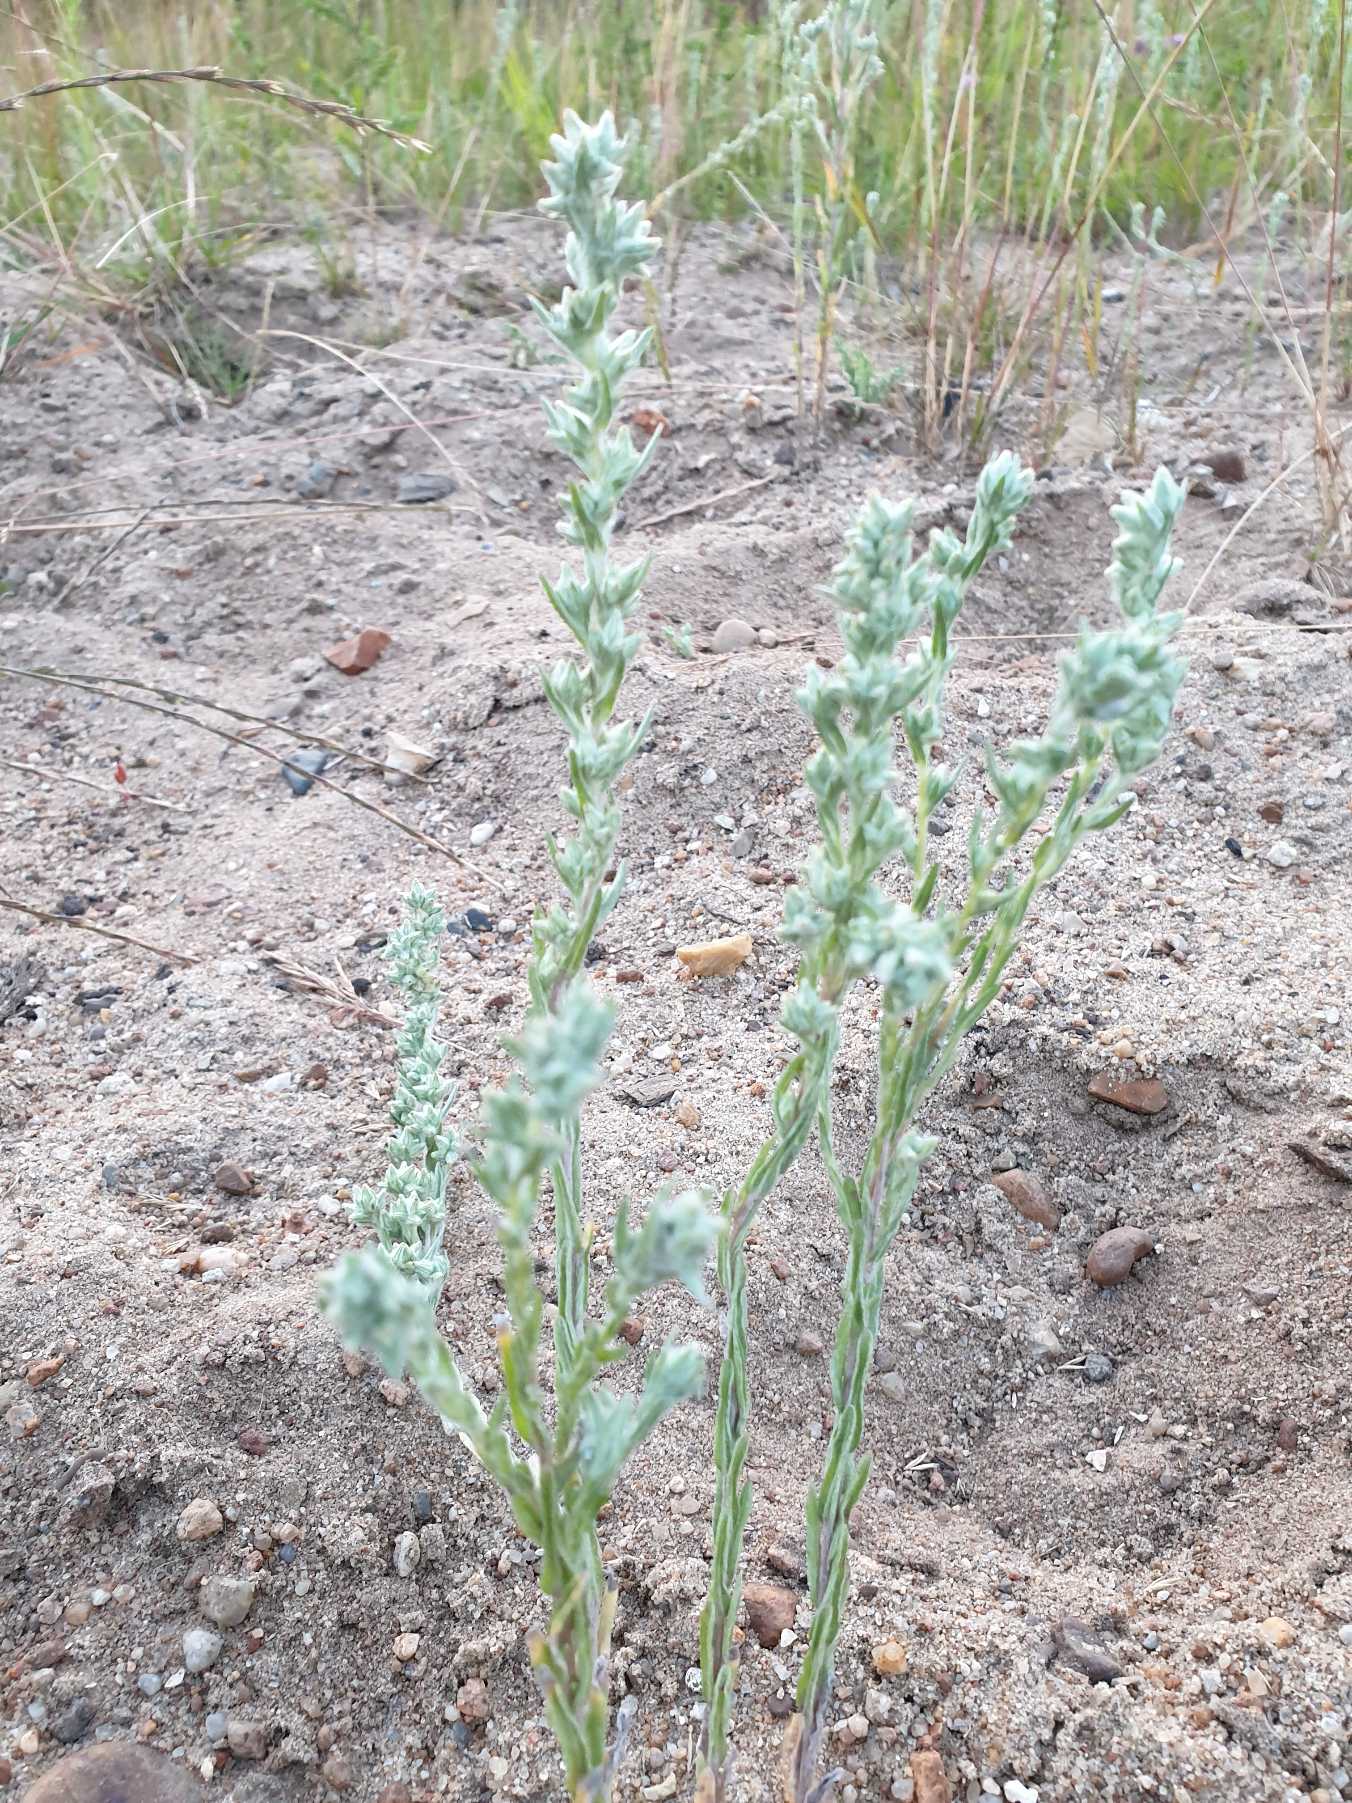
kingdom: Plantae
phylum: Tracheophyta
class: Magnoliopsida
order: Asterales
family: Asteraceae
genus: Filago
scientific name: Filago arvensis
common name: Ager-museurt
